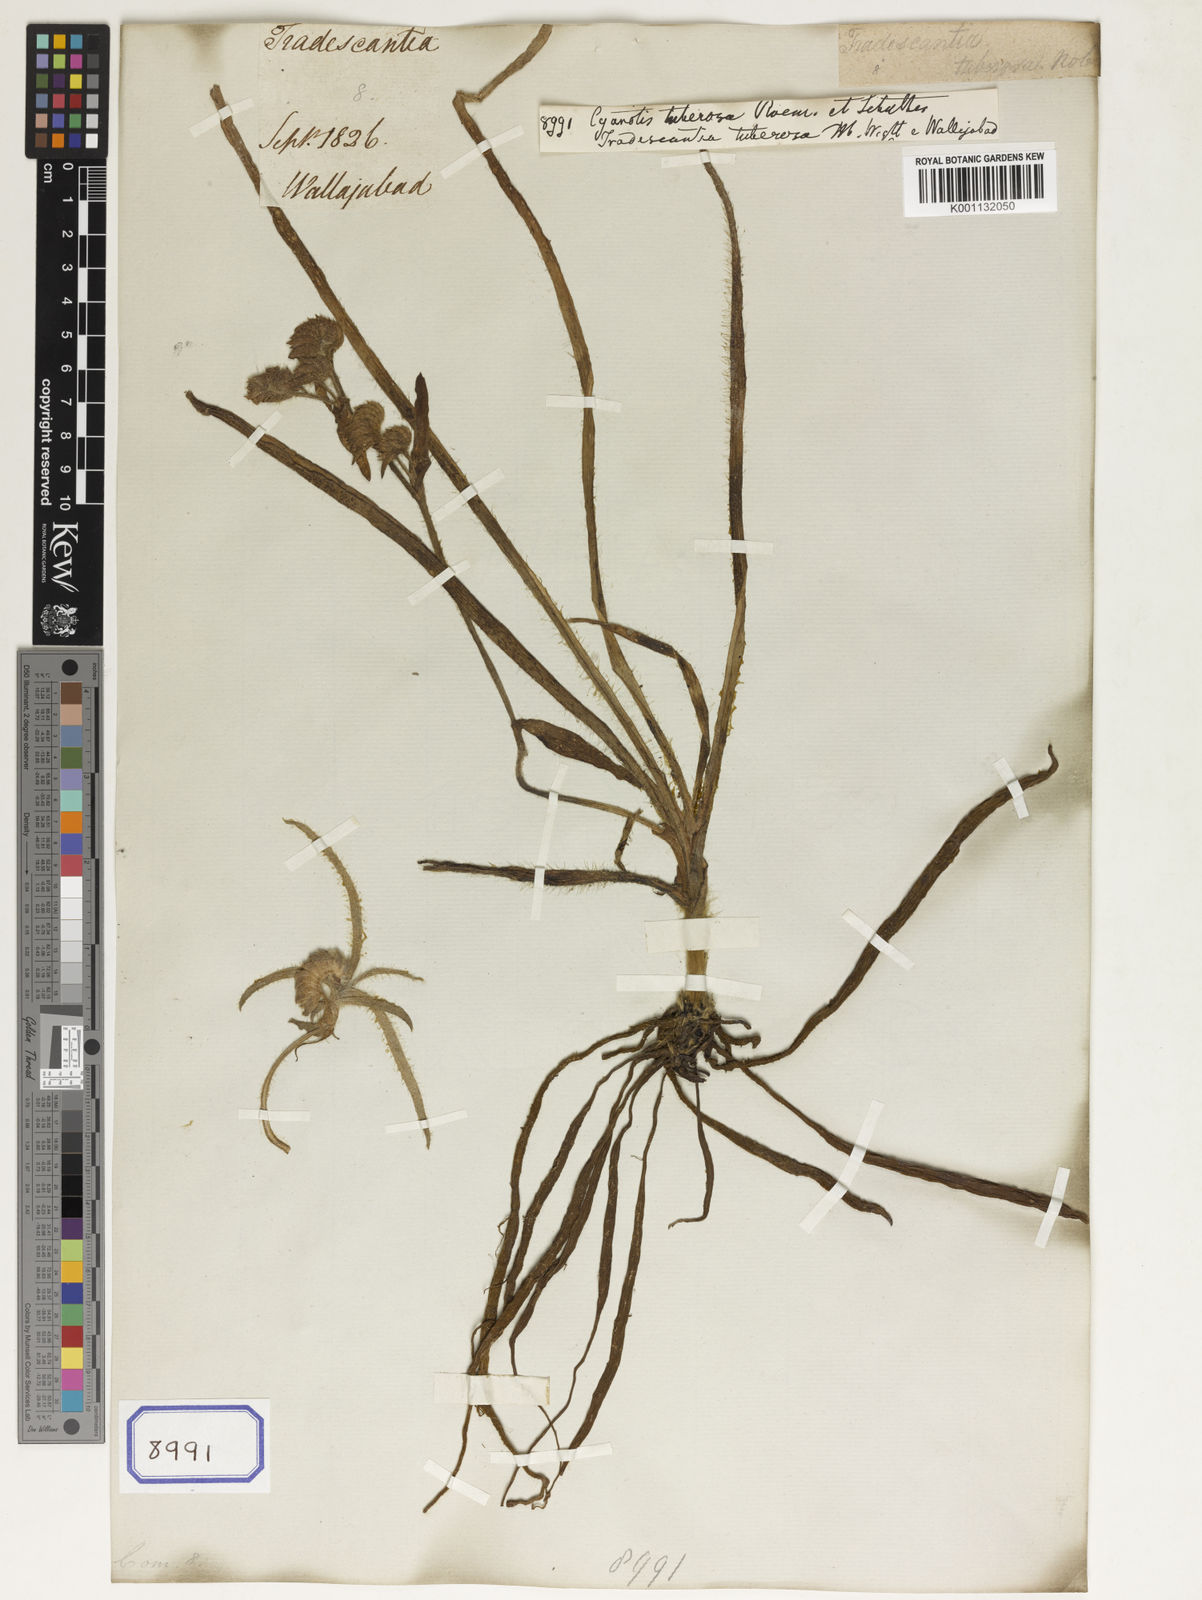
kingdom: Plantae
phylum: Tracheophyta
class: Liliopsida
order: Commelinales
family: Commelinaceae
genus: Cyanotis
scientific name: Cyanotis tuberosa
